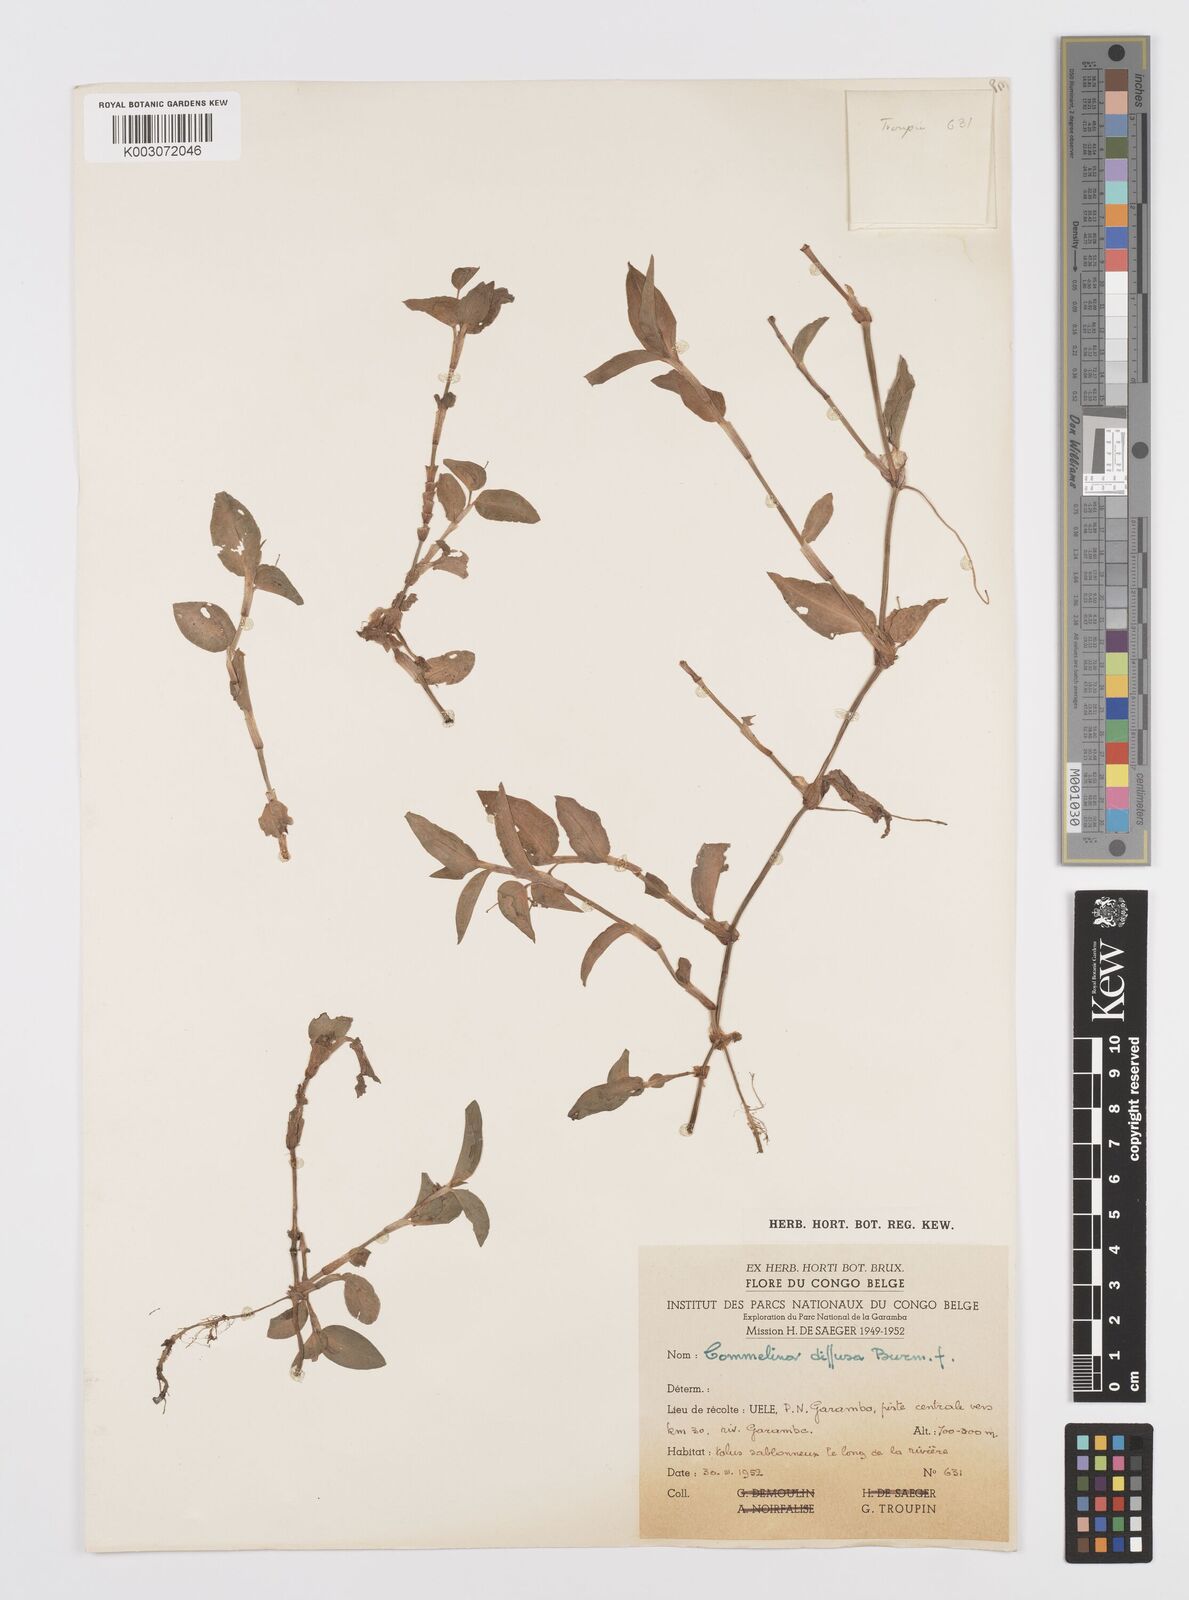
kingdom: Plantae
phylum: Tracheophyta
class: Liliopsida
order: Commelinales
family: Commelinaceae
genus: Commelina
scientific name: Commelina diffusa
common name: Climbing dayflower
